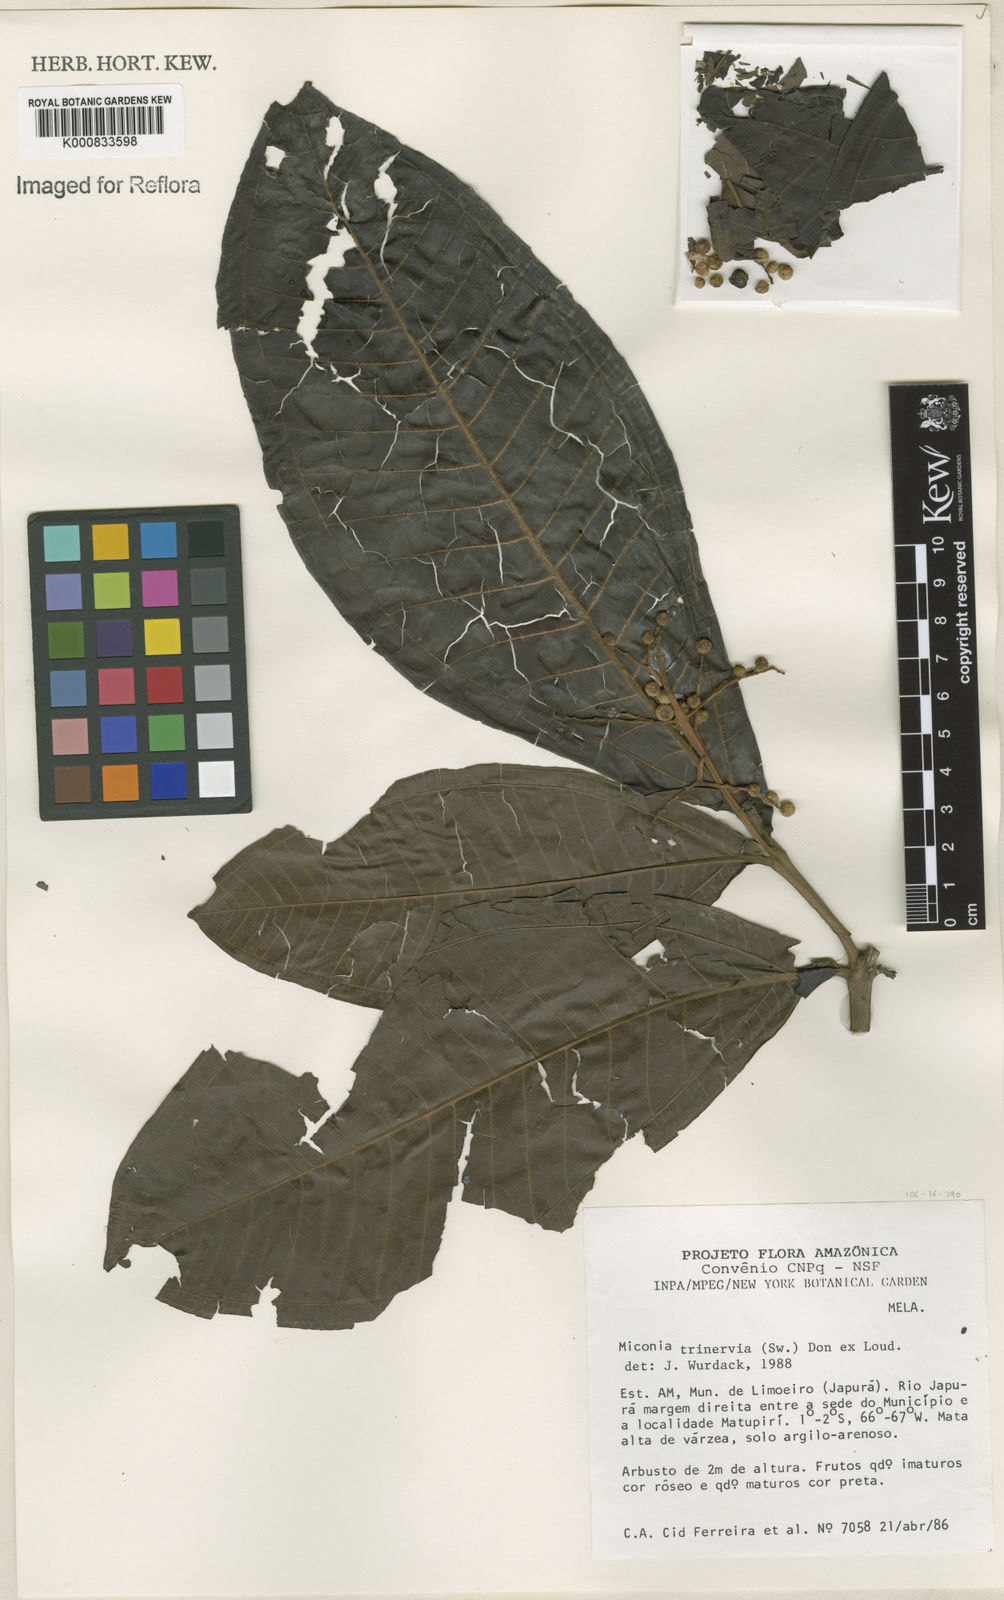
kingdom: Plantae
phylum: Tracheophyta
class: Magnoliopsida
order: Myrtales
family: Melastomataceae
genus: Miconia
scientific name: Miconia trinervia
